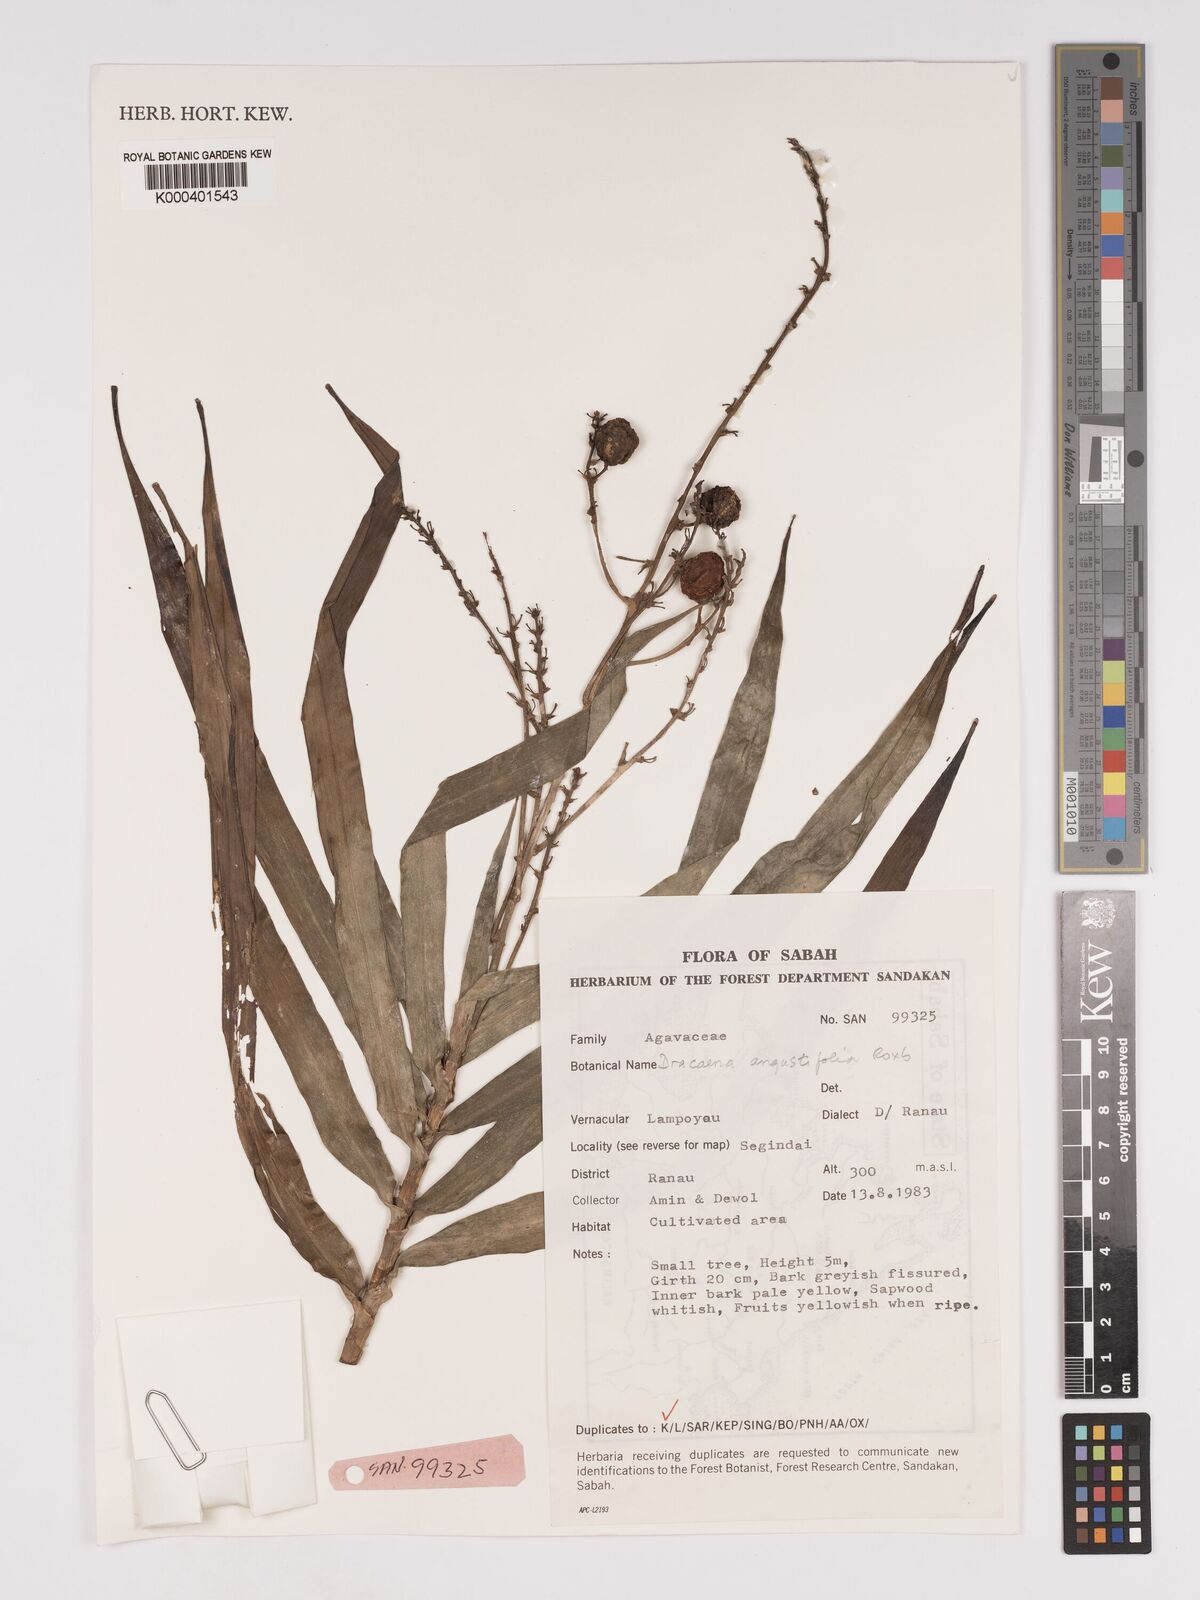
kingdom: Plantae
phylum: Tracheophyta
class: Liliopsida
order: Asparagales
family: Asparagaceae
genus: Dracaena
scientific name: Dracaena angustifolia
